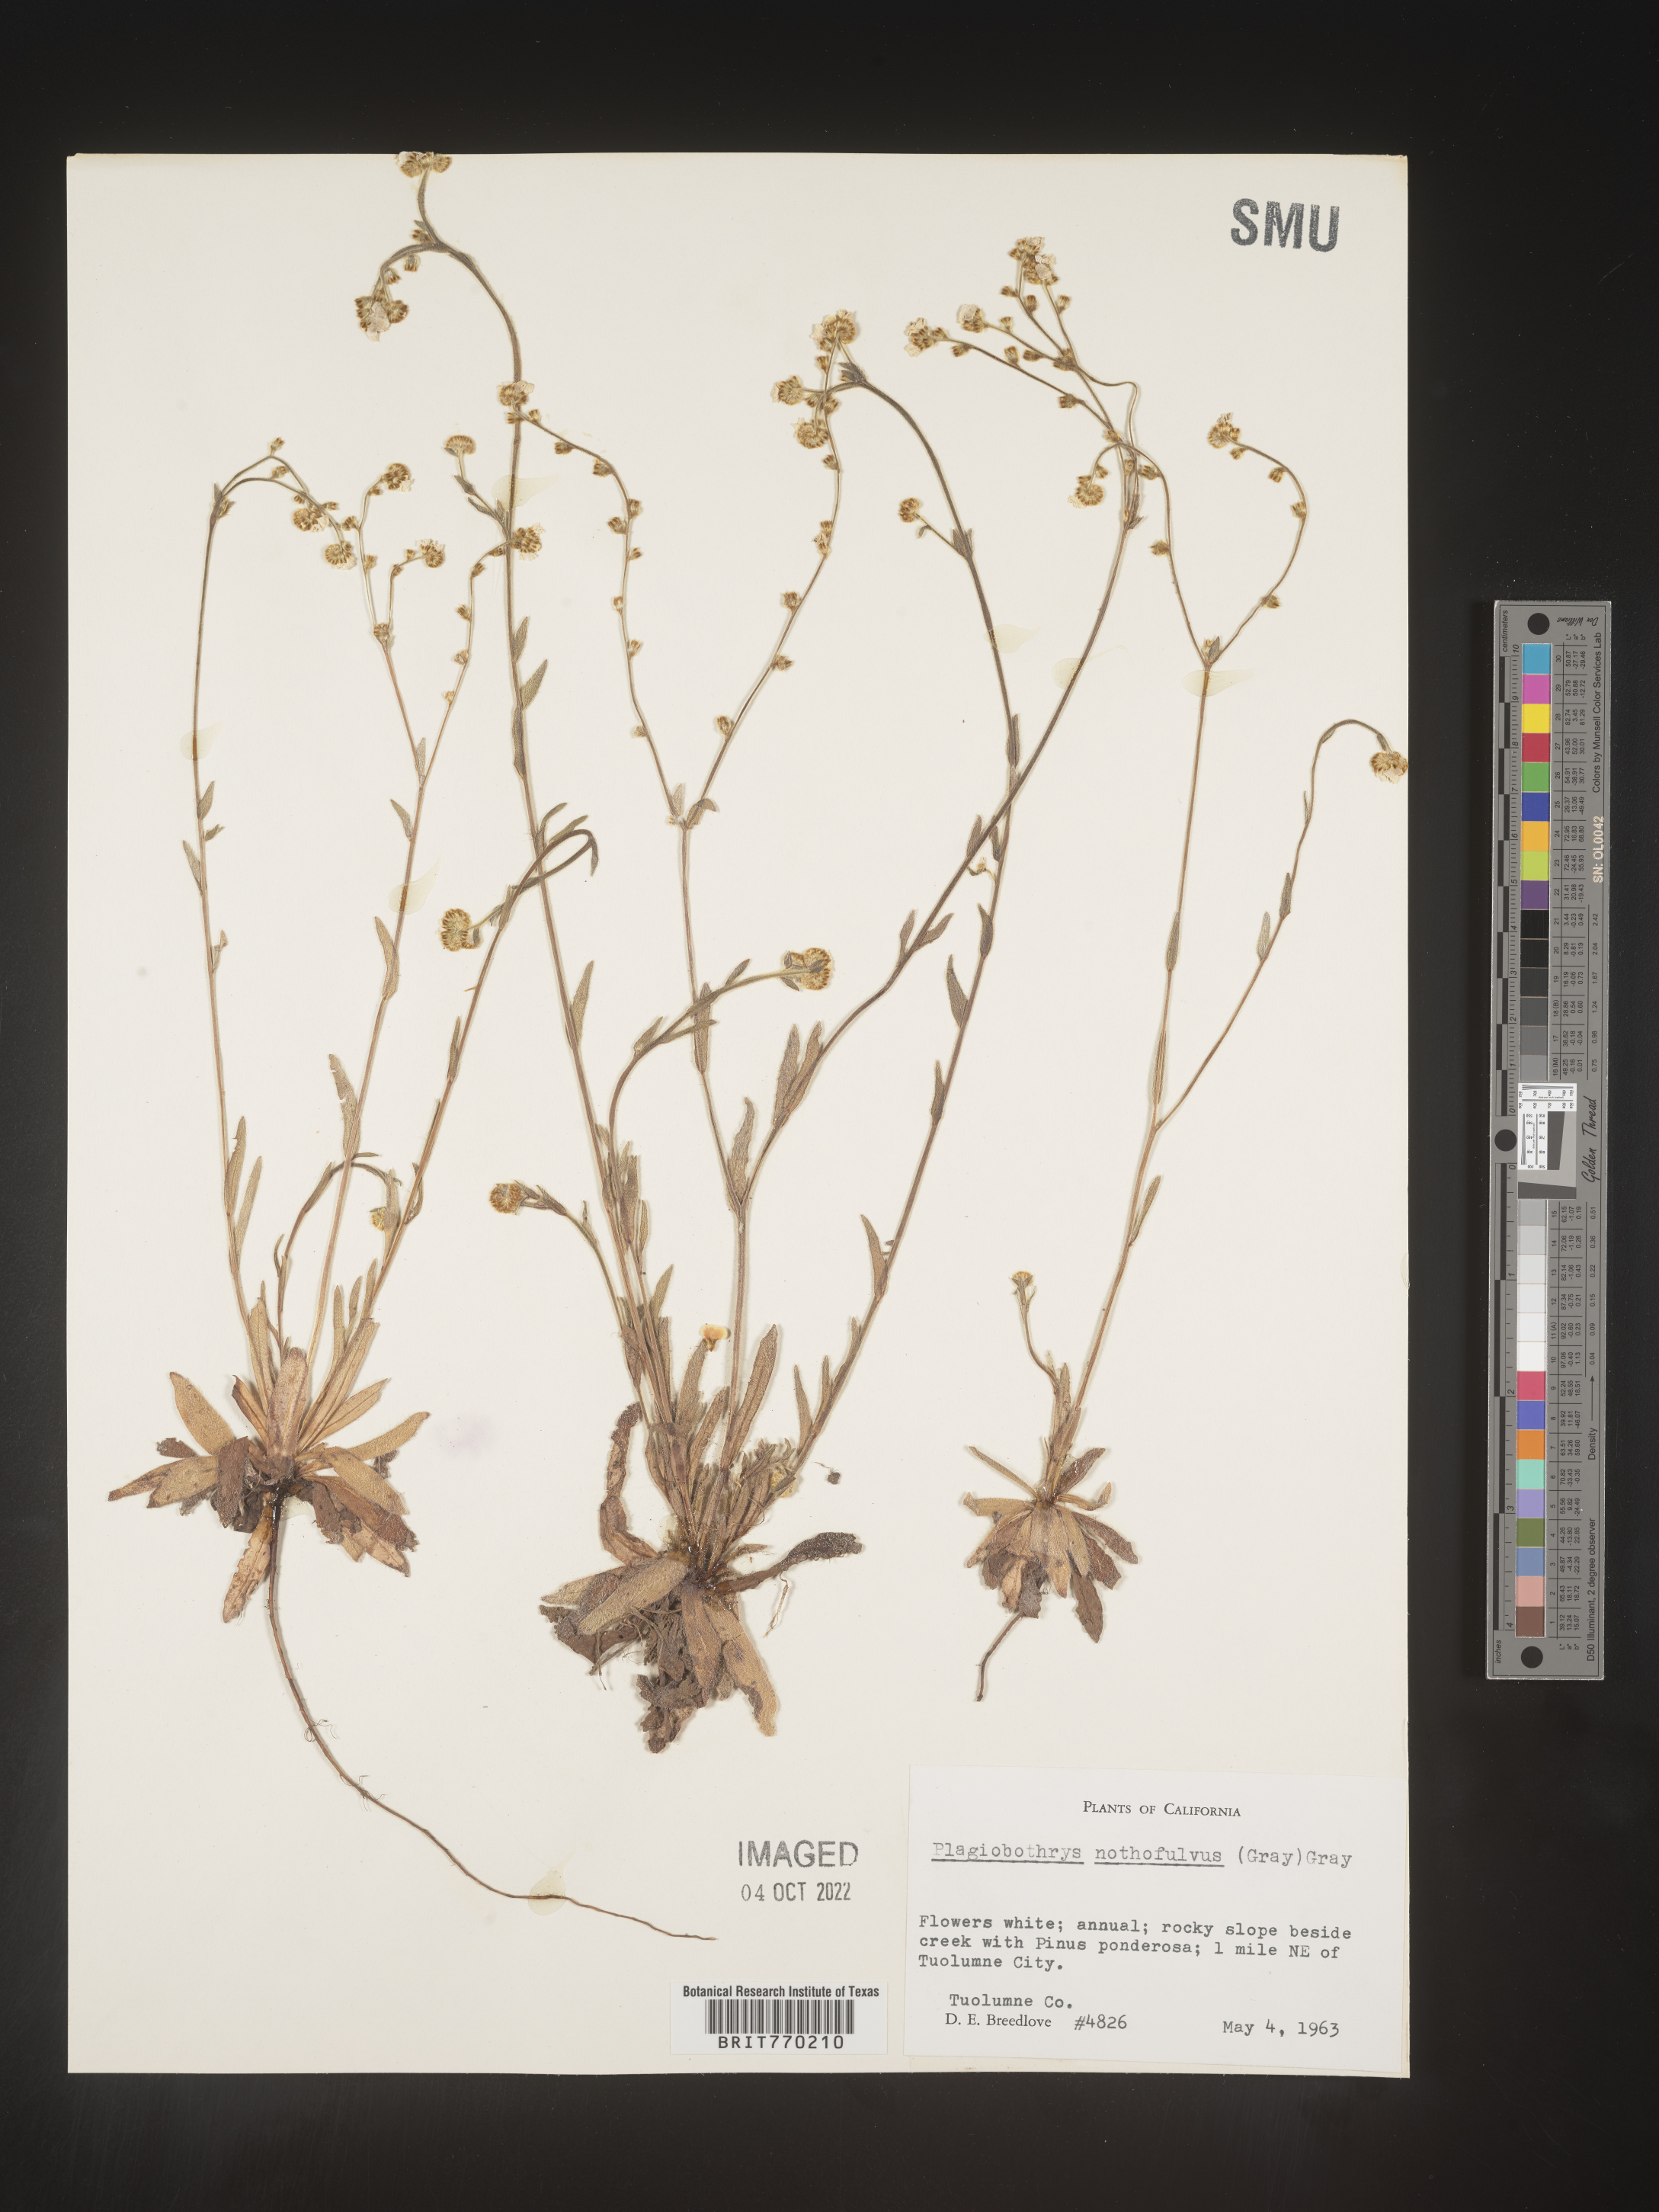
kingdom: Plantae
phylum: Tracheophyta
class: Magnoliopsida
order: Boraginales
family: Boraginaceae
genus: Plagiobothrys
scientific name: Plagiobothrys
